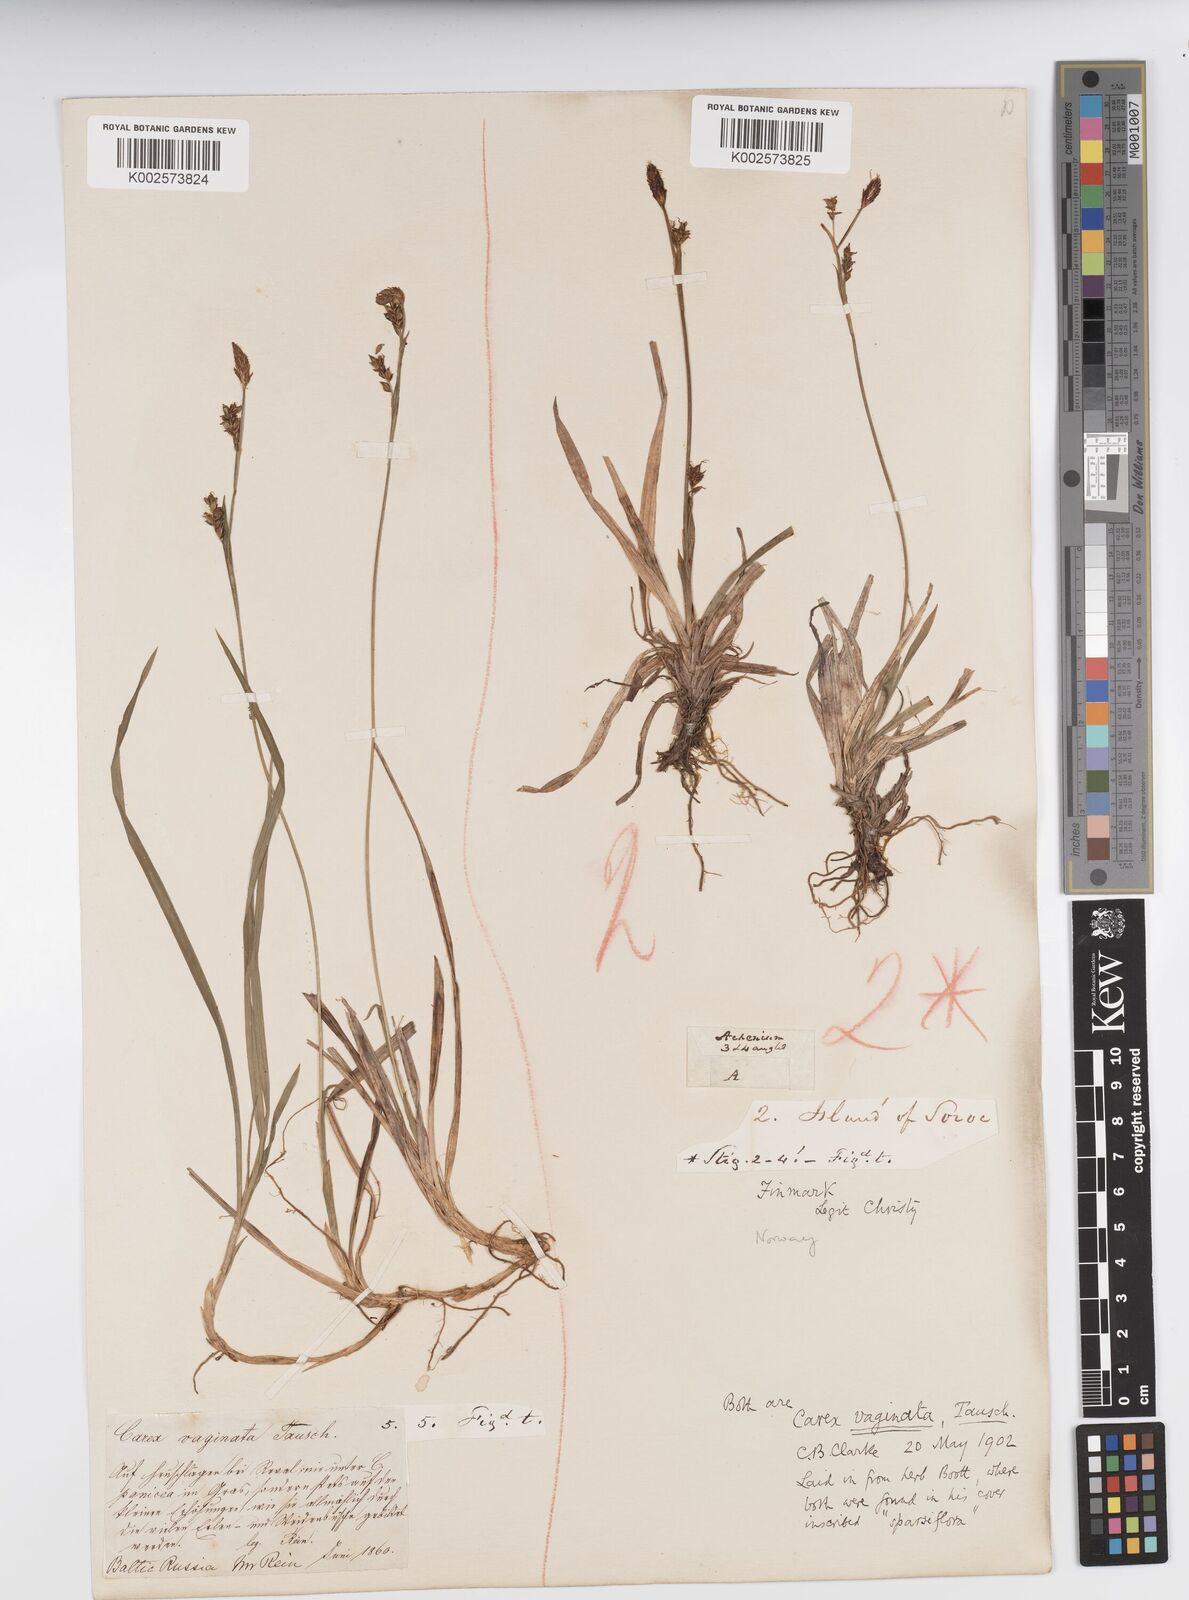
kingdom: Plantae
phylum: Tracheophyta
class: Liliopsida
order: Poales
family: Cyperaceae
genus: Carex
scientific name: Carex vaginata
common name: Sheathed sedge
